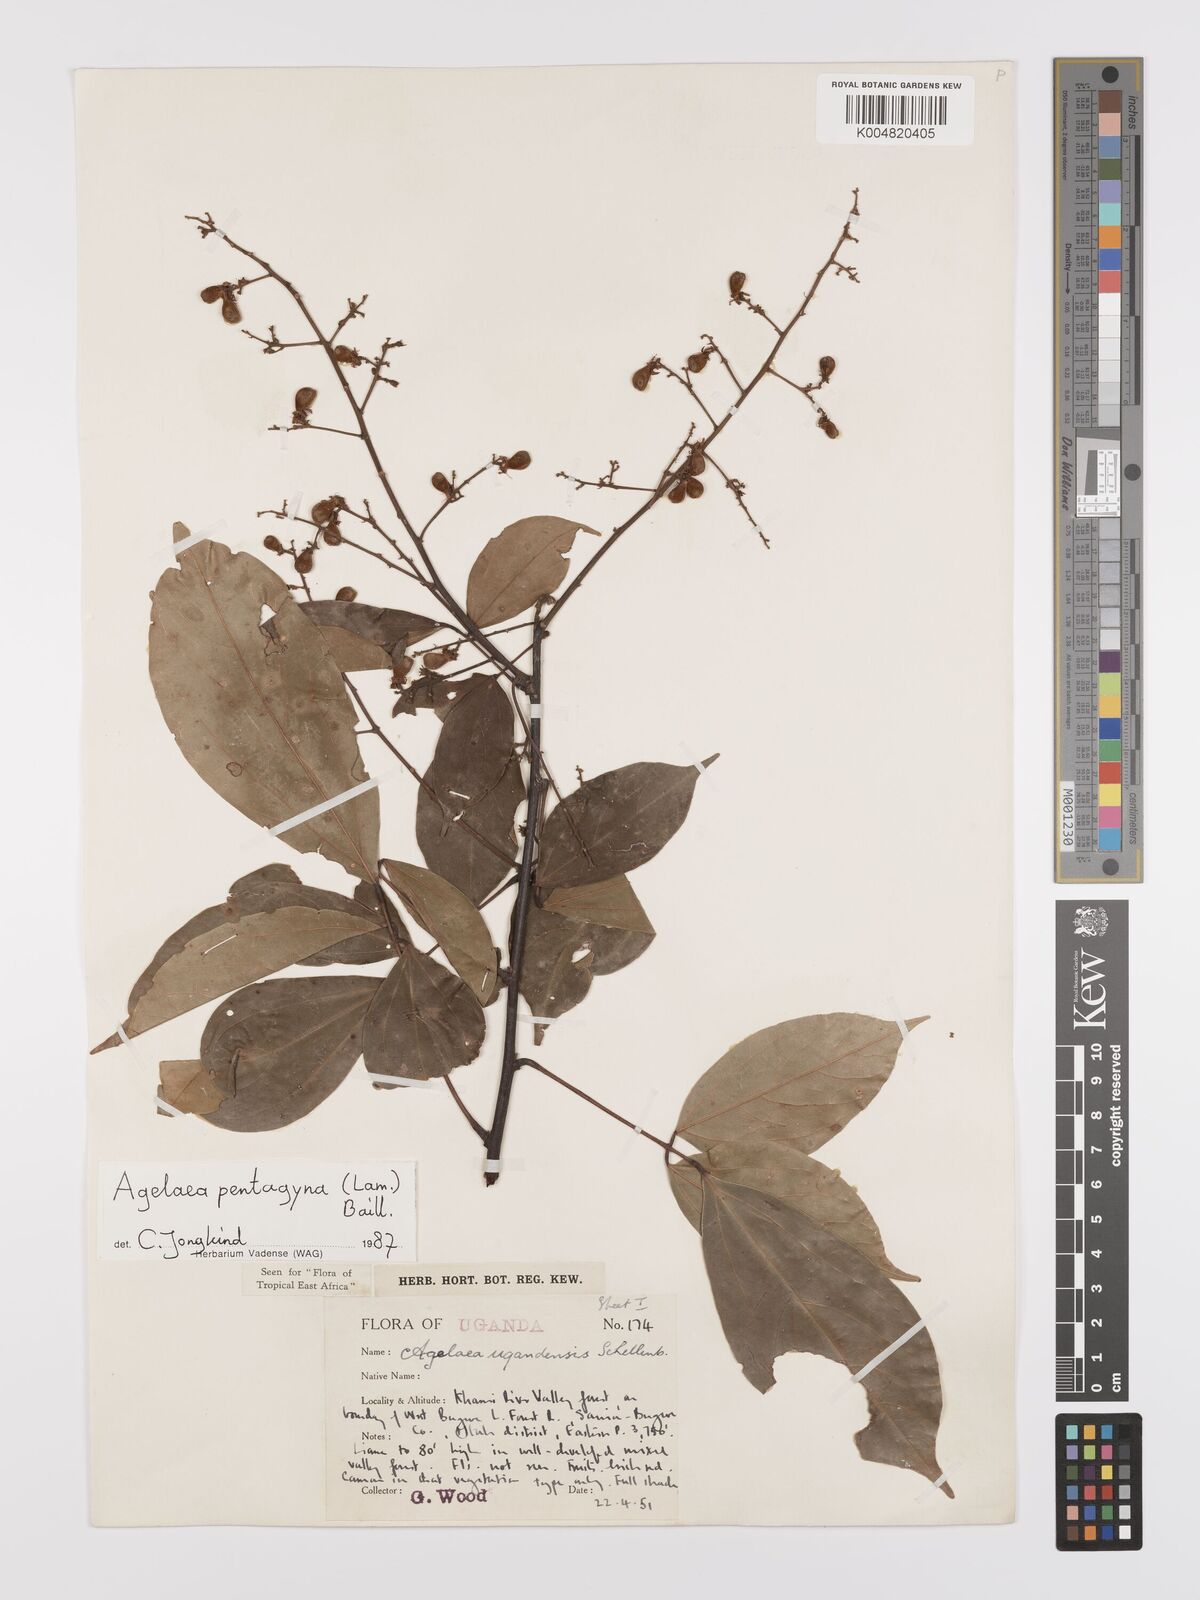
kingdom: Plantae
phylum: Tracheophyta
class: Magnoliopsida
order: Oxalidales
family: Connaraceae
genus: Agelaea
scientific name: Agelaea pentagyna
